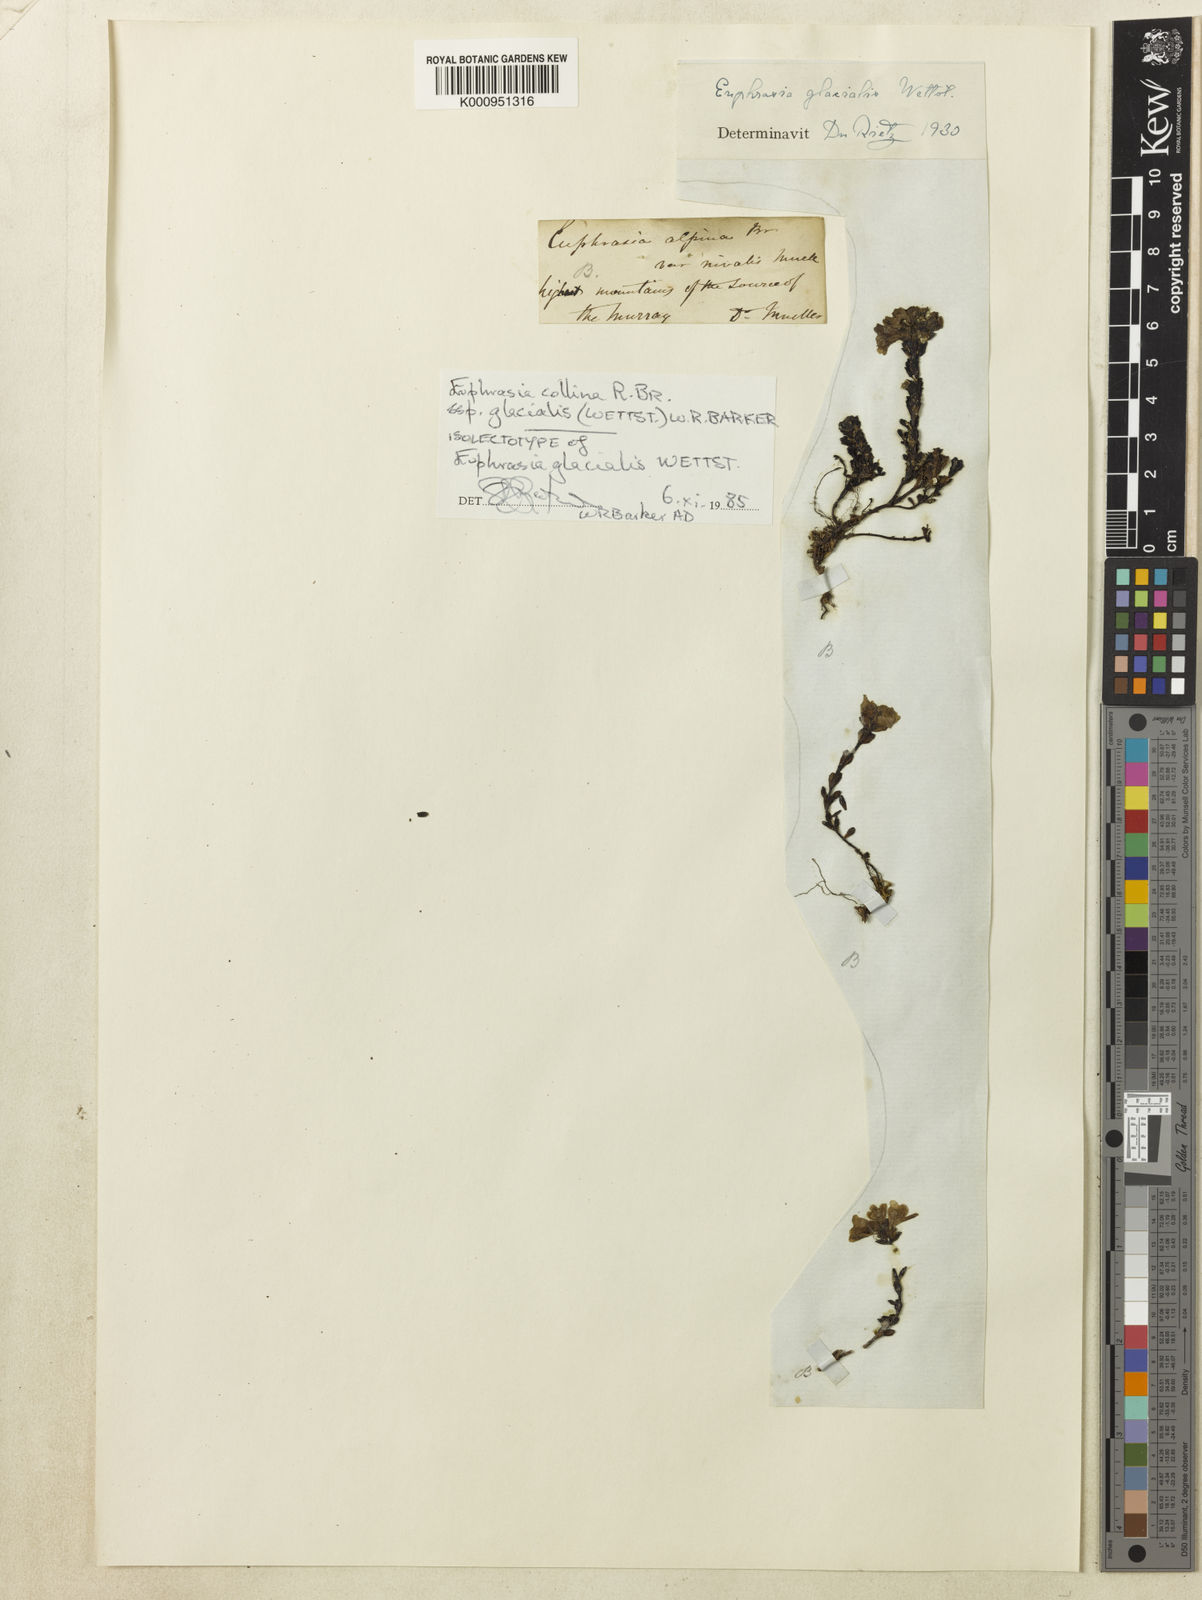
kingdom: Plantae
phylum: Tracheophyta
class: Magnoliopsida
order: Lamiales
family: Orobanchaceae
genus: Euphrasia
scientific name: Euphrasia collina
